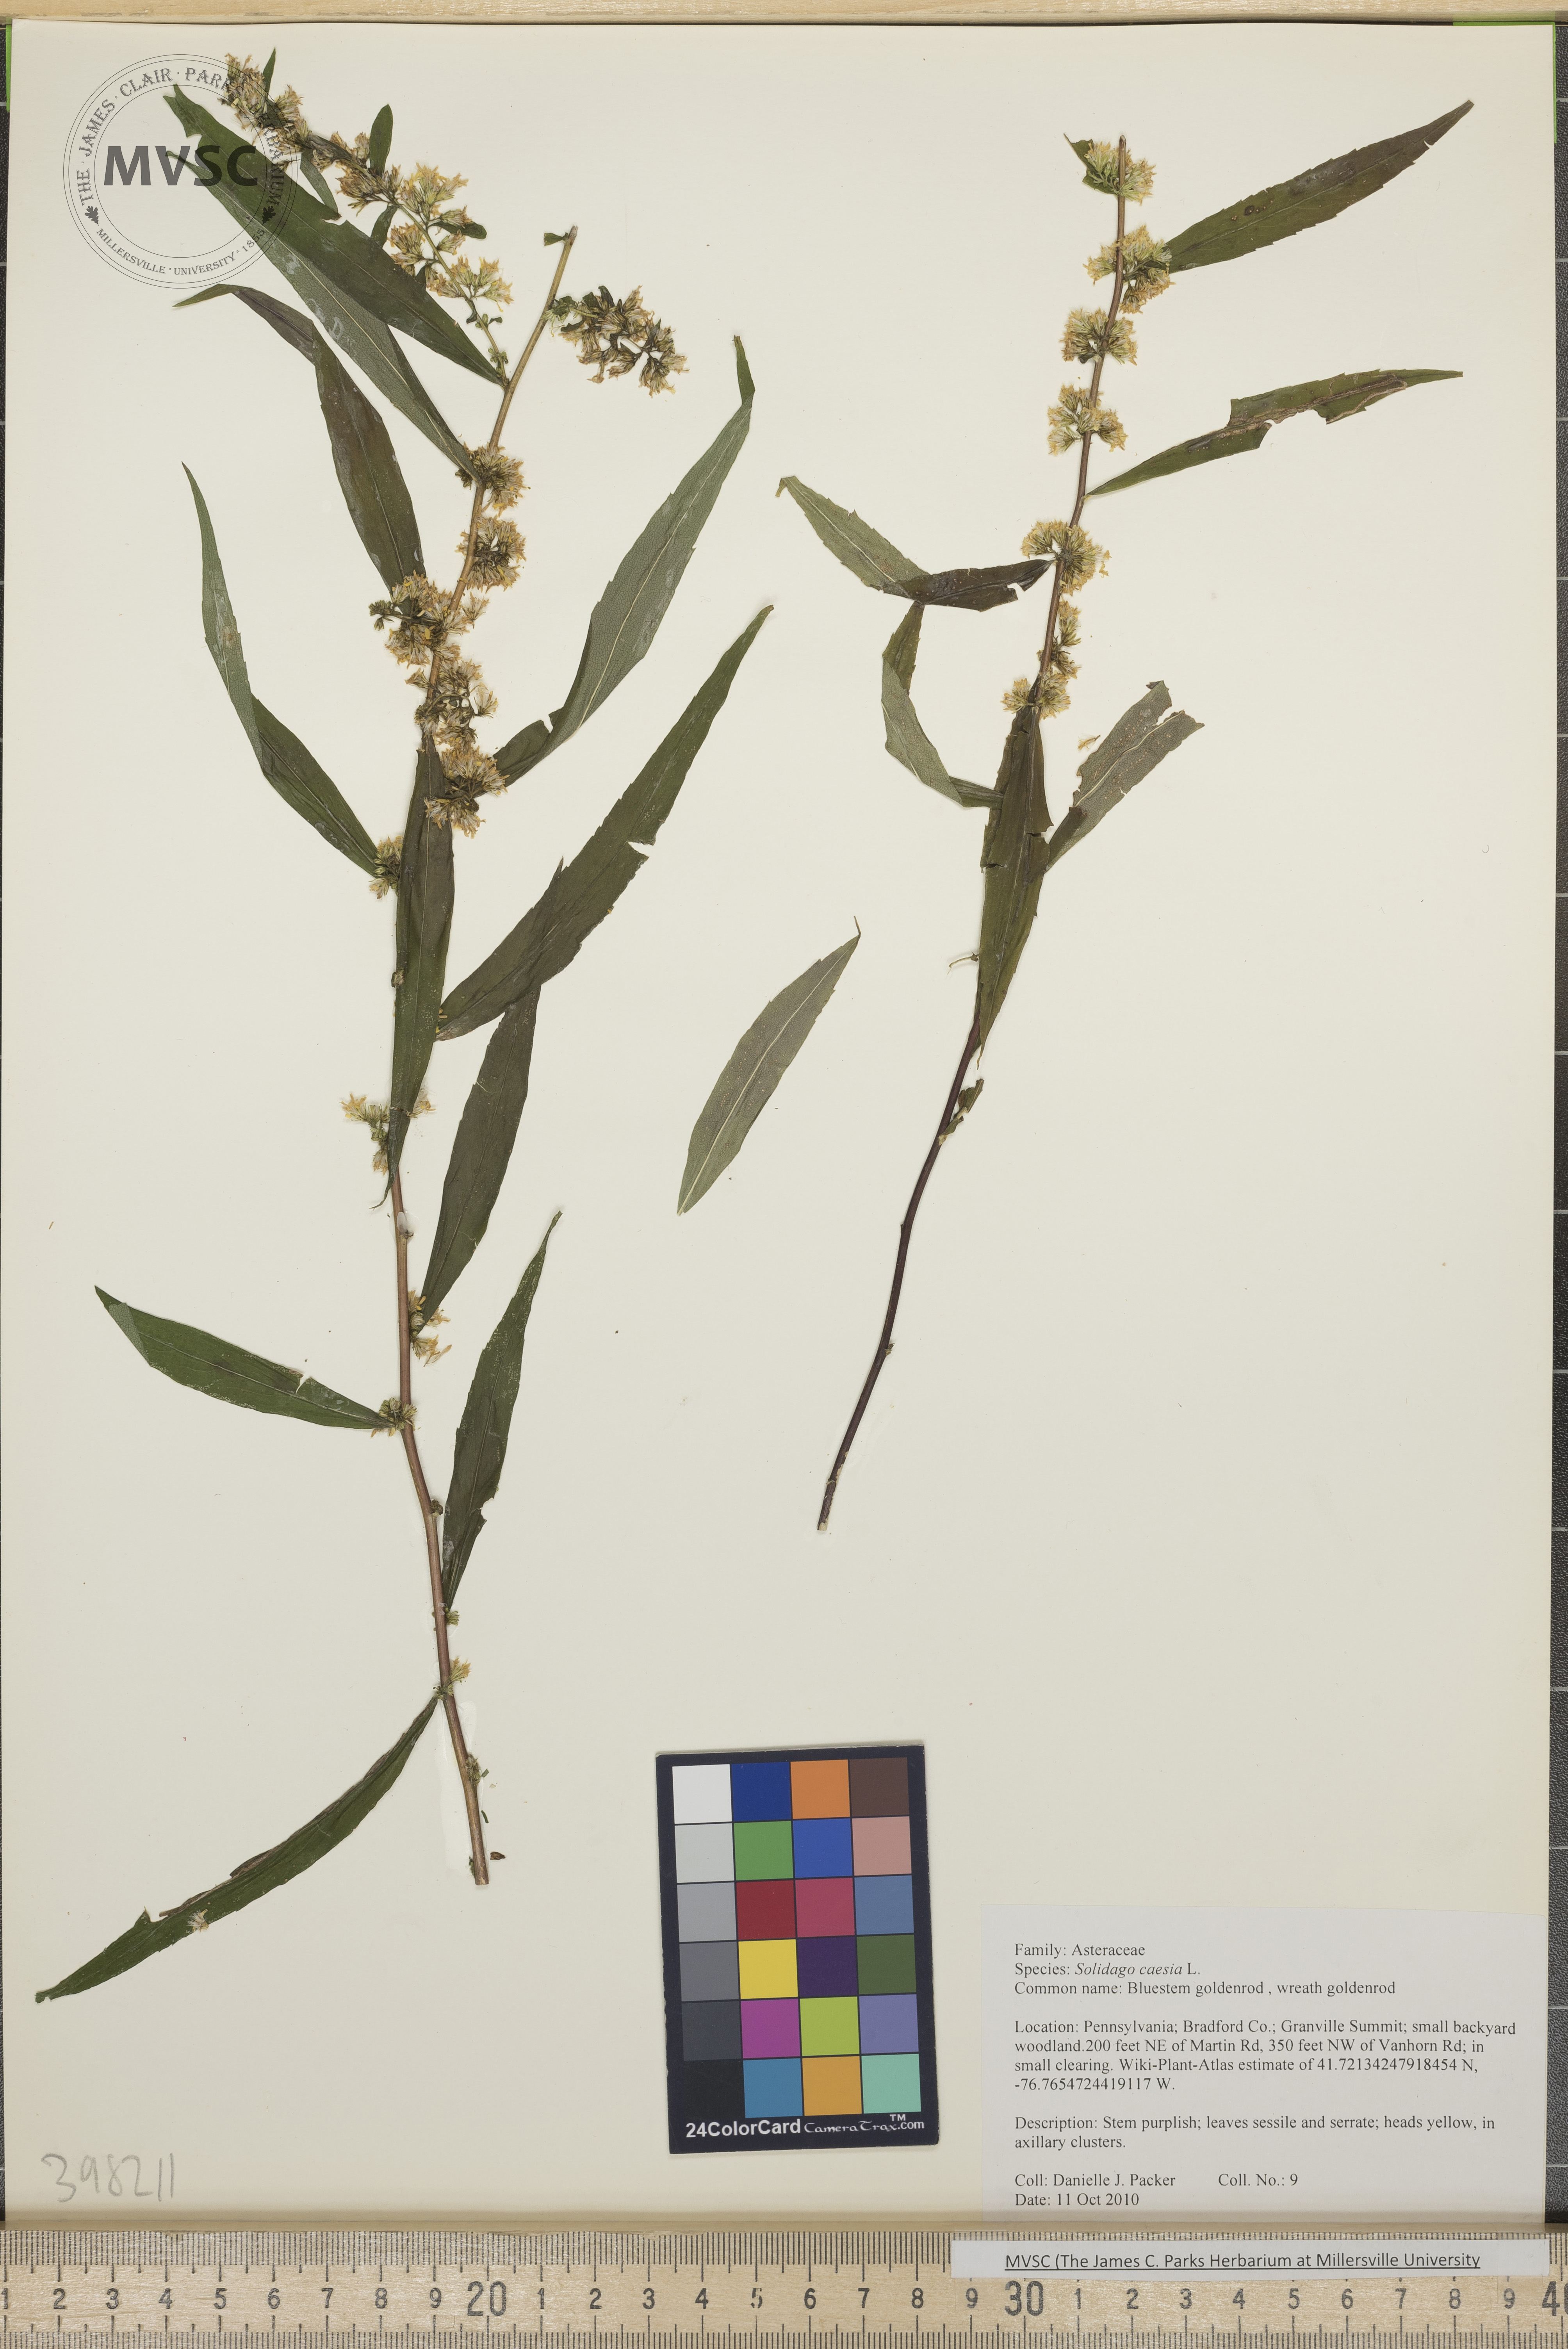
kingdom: Plantae
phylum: Tracheophyta
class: Magnoliopsida
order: Asterales
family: Asteraceae
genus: Solidago
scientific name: Solidago caesia
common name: Bluestem goldenrod
